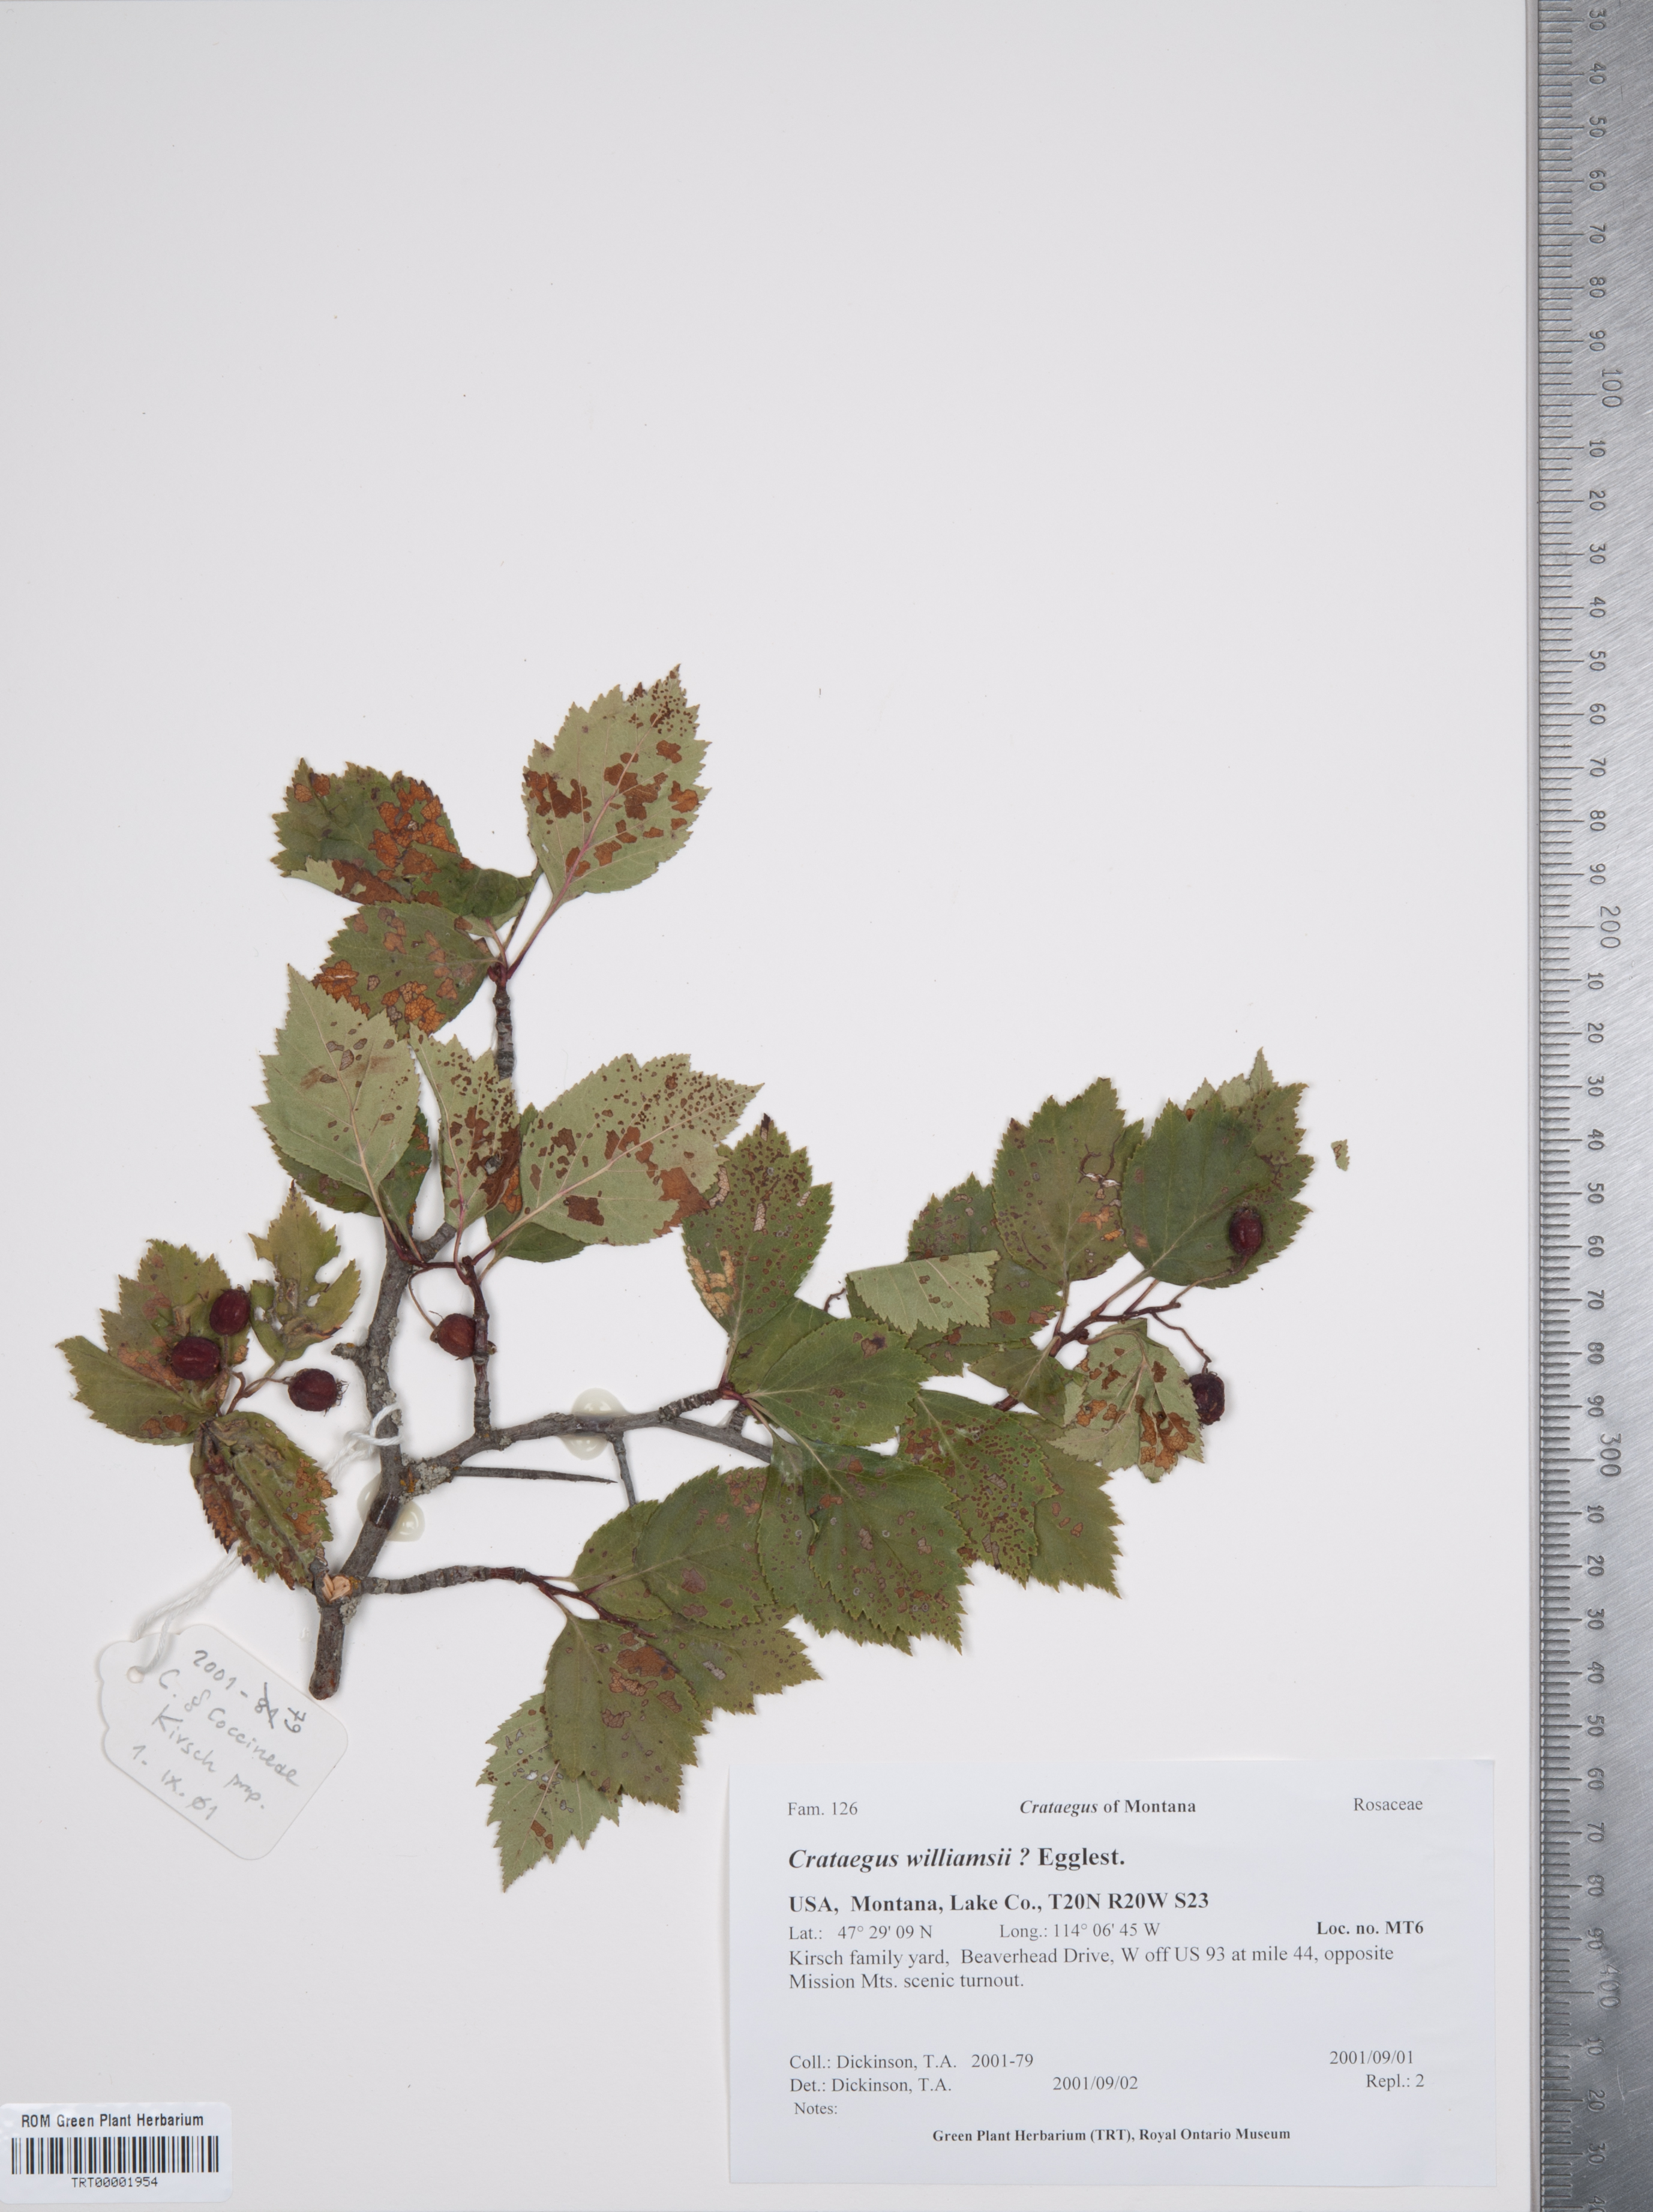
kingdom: Plantae
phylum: Tracheophyta
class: Magnoliopsida
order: Rosales
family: Rosaceae
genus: Crataegus
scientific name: Crataegus williamsii
